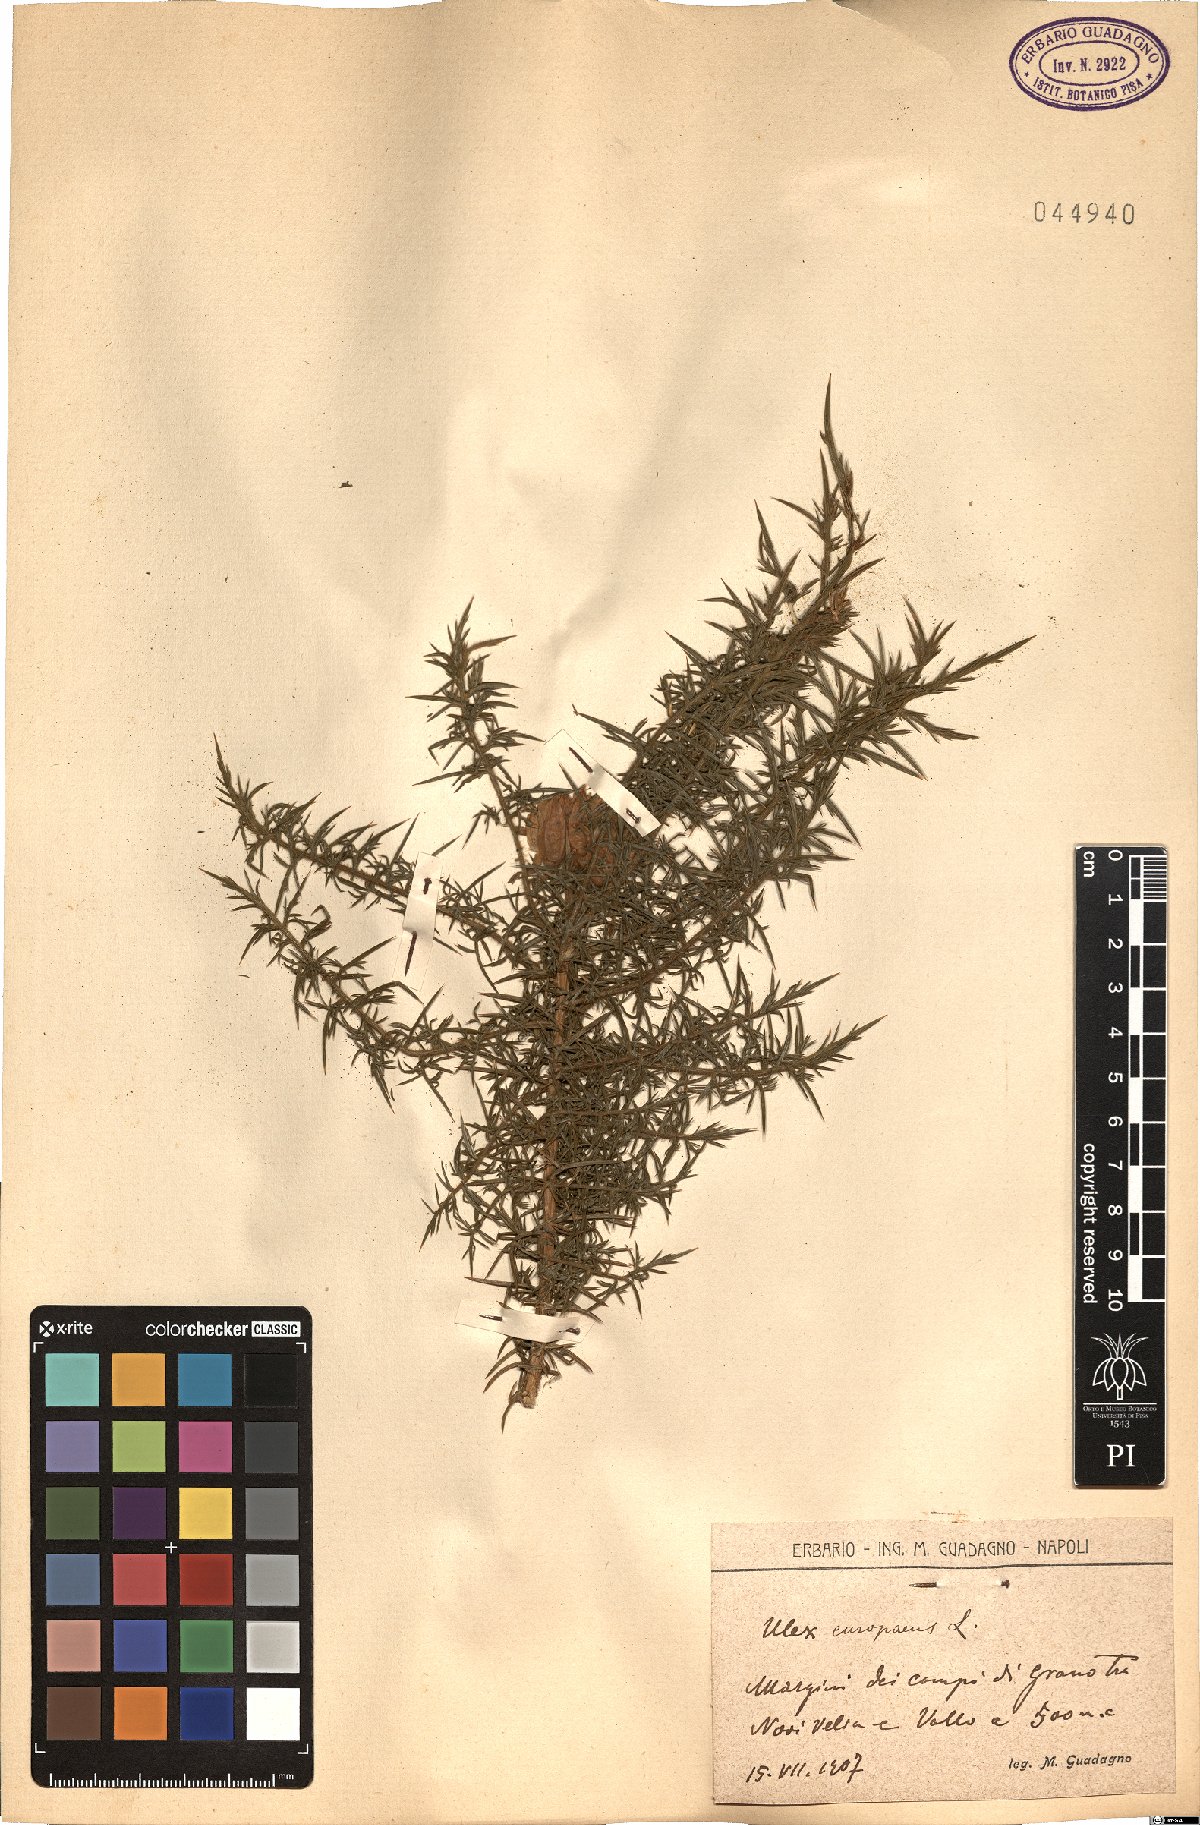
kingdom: Plantae
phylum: Tracheophyta
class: Magnoliopsida
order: Fabales
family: Fabaceae
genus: Ulex
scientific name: Ulex europaeus
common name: Common gorse
